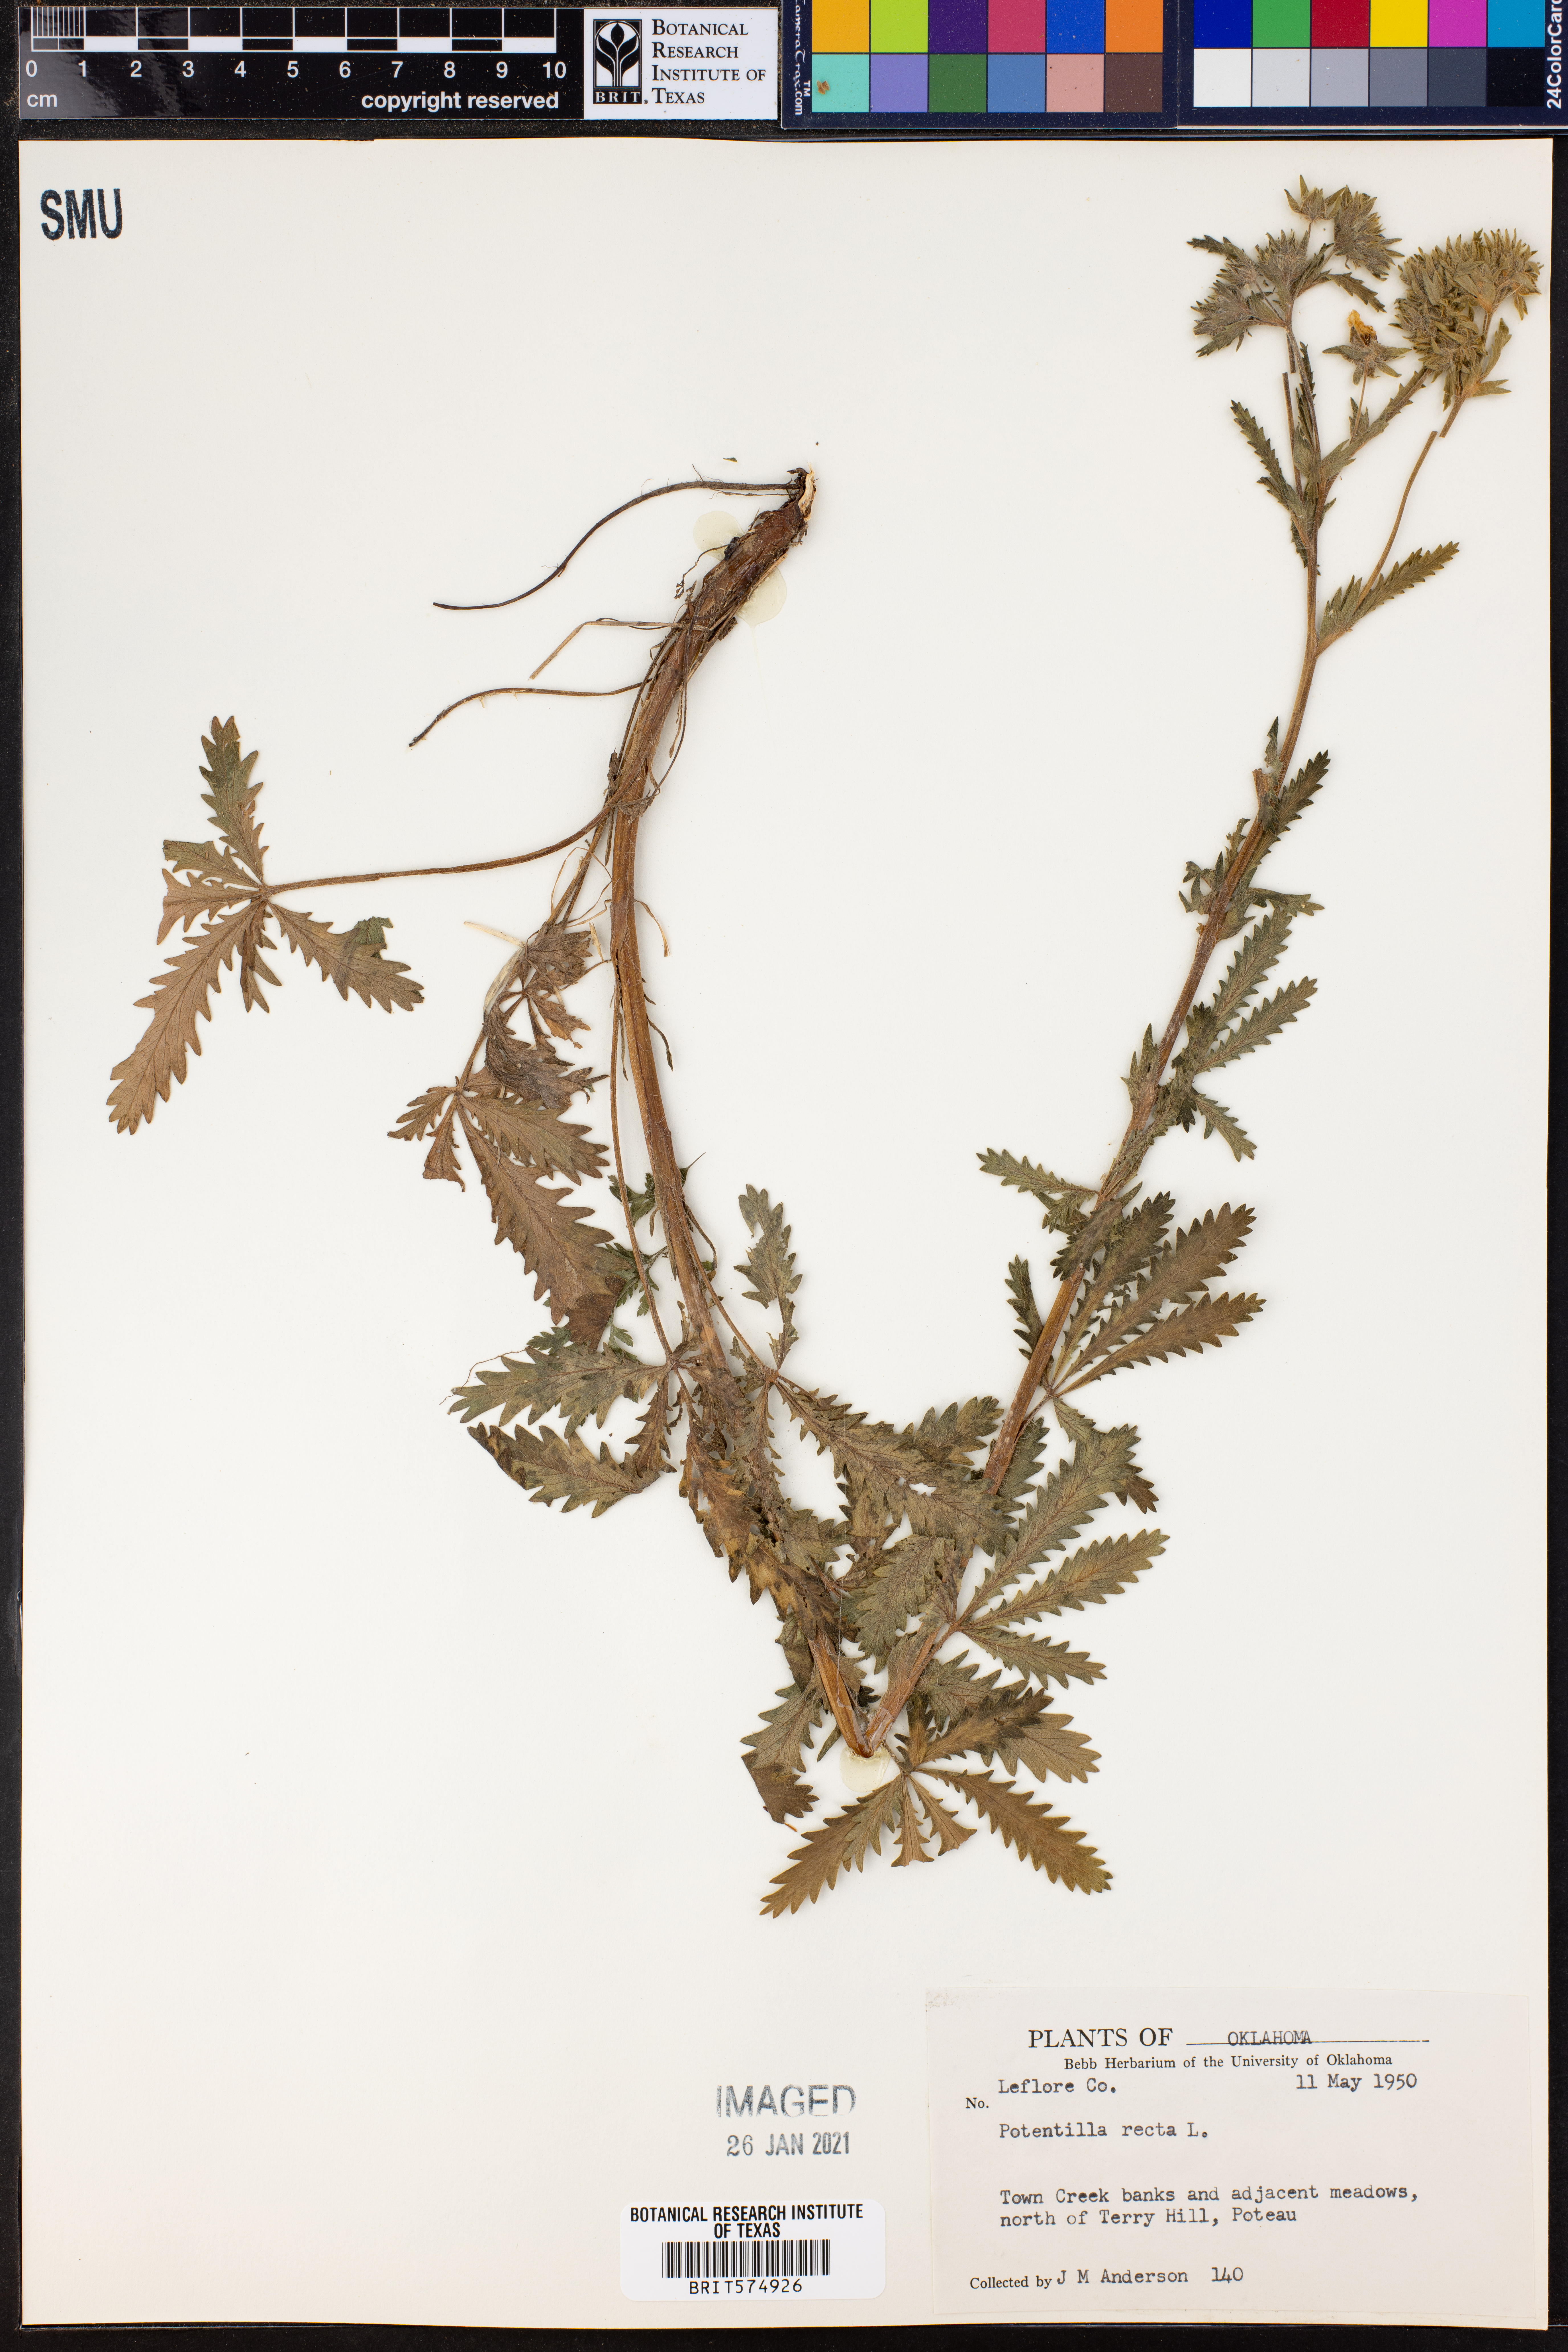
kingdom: Plantae
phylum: Tracheophyta
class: Magnoliopsida
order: Rosales
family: Rosaceae
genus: Potentilla
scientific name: Potentilla recta
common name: Sulphur cinquefoil
